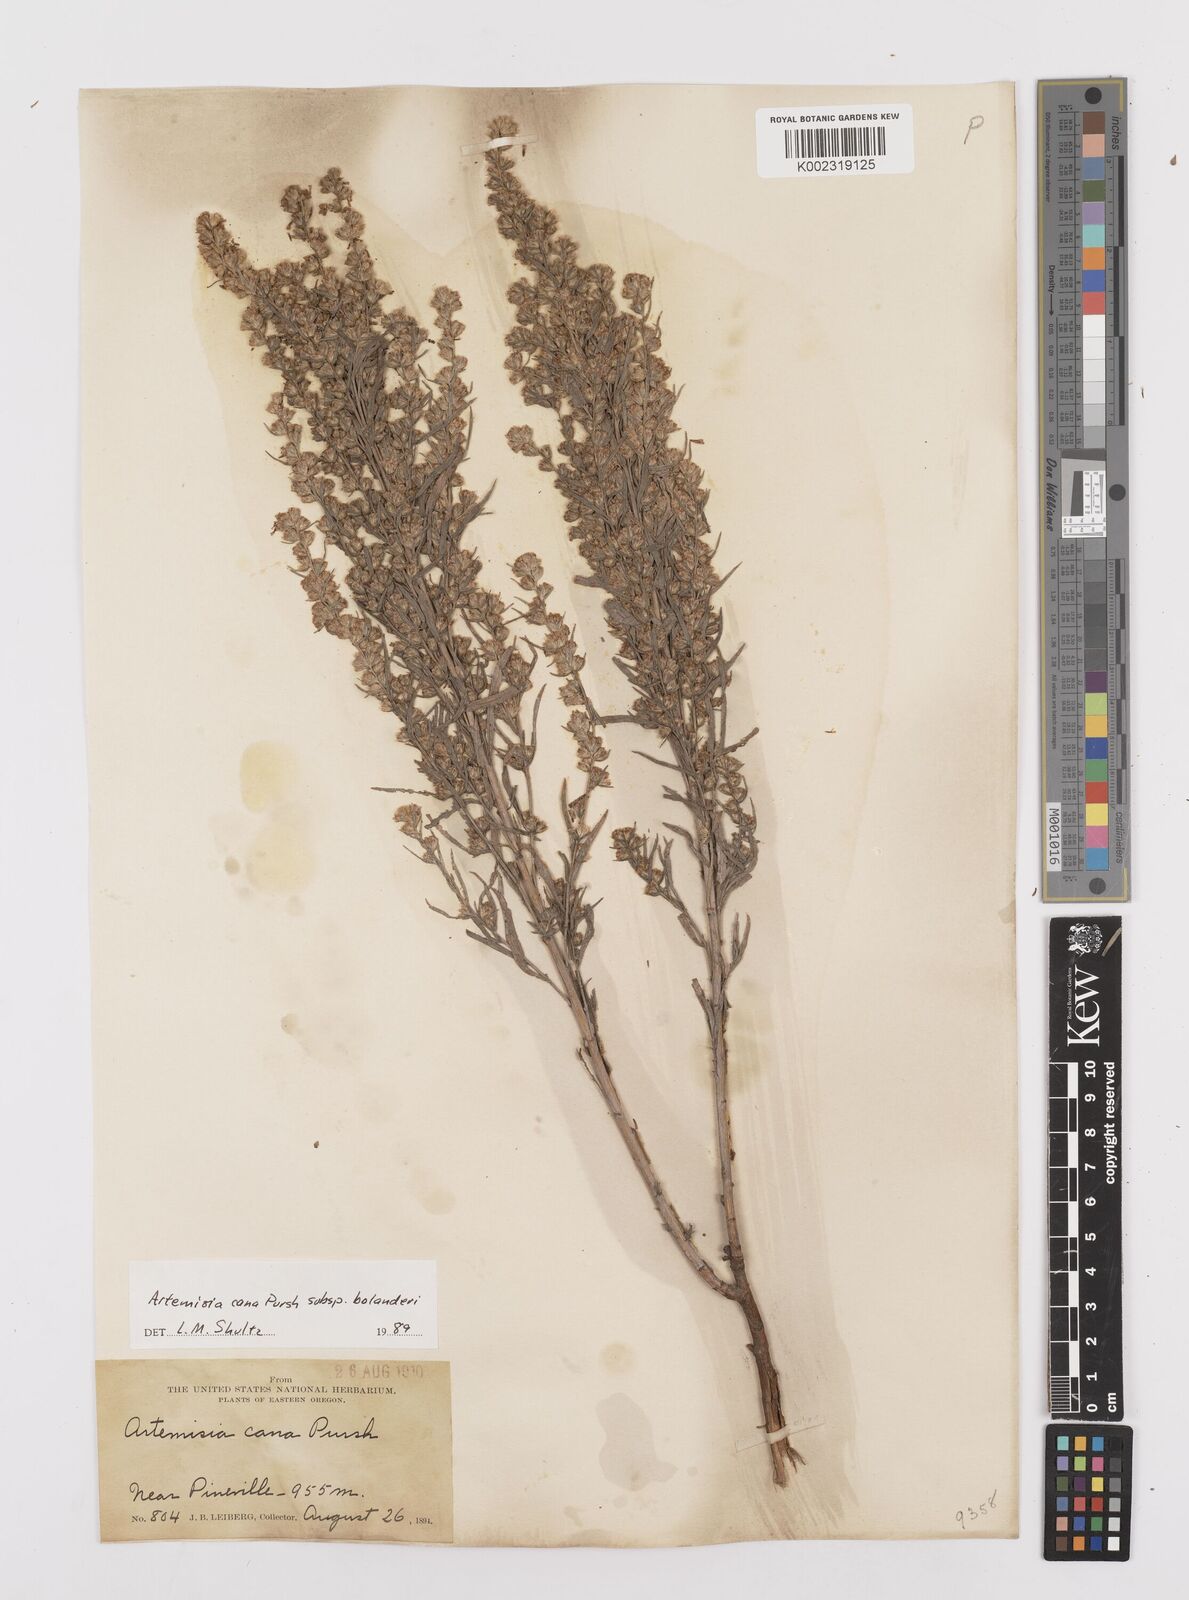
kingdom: Plantae
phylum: Tracheophyta
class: Magnoliopsida
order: Asterales
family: Asteraceae
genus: Artemisia
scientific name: Artemisia cana
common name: Silver sagebrush
